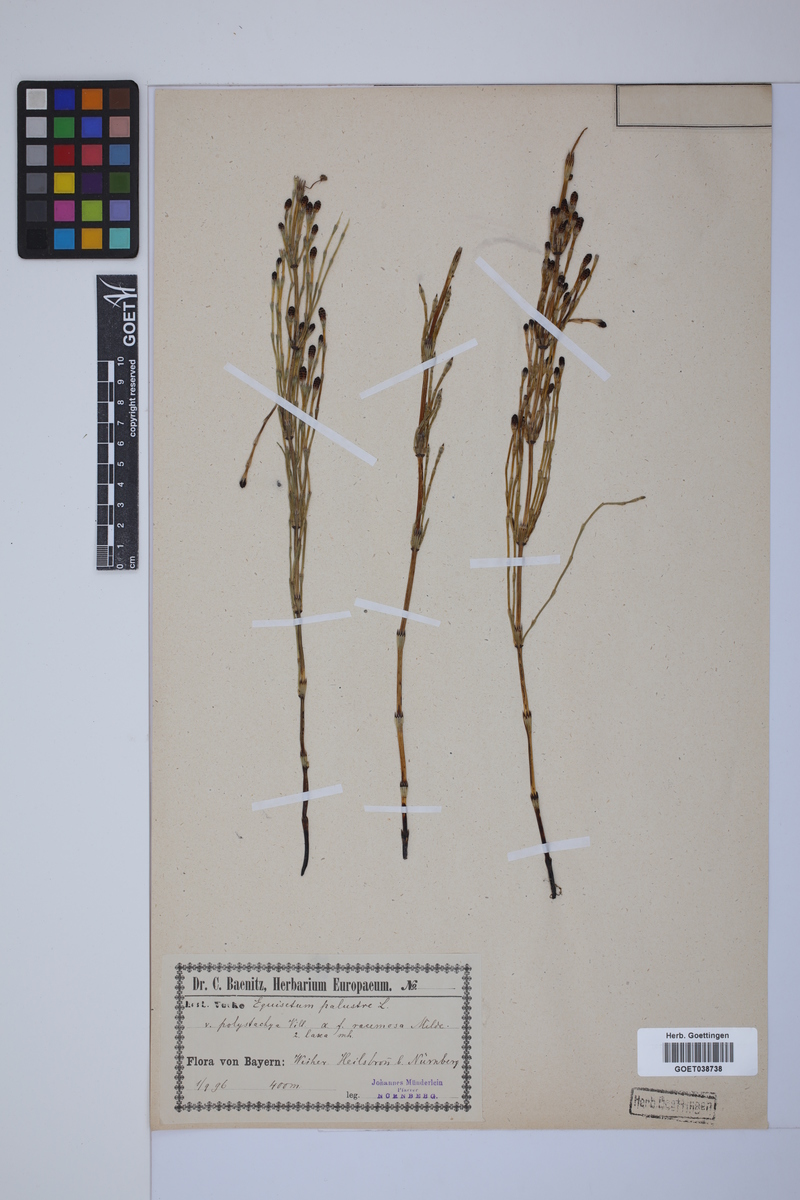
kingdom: Plantae
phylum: Tracheophyta
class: Polypodiopsida
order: Equisetales
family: Equisetaceae
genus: Equisetum
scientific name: Equisetum palustre
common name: Marsh horsetail
